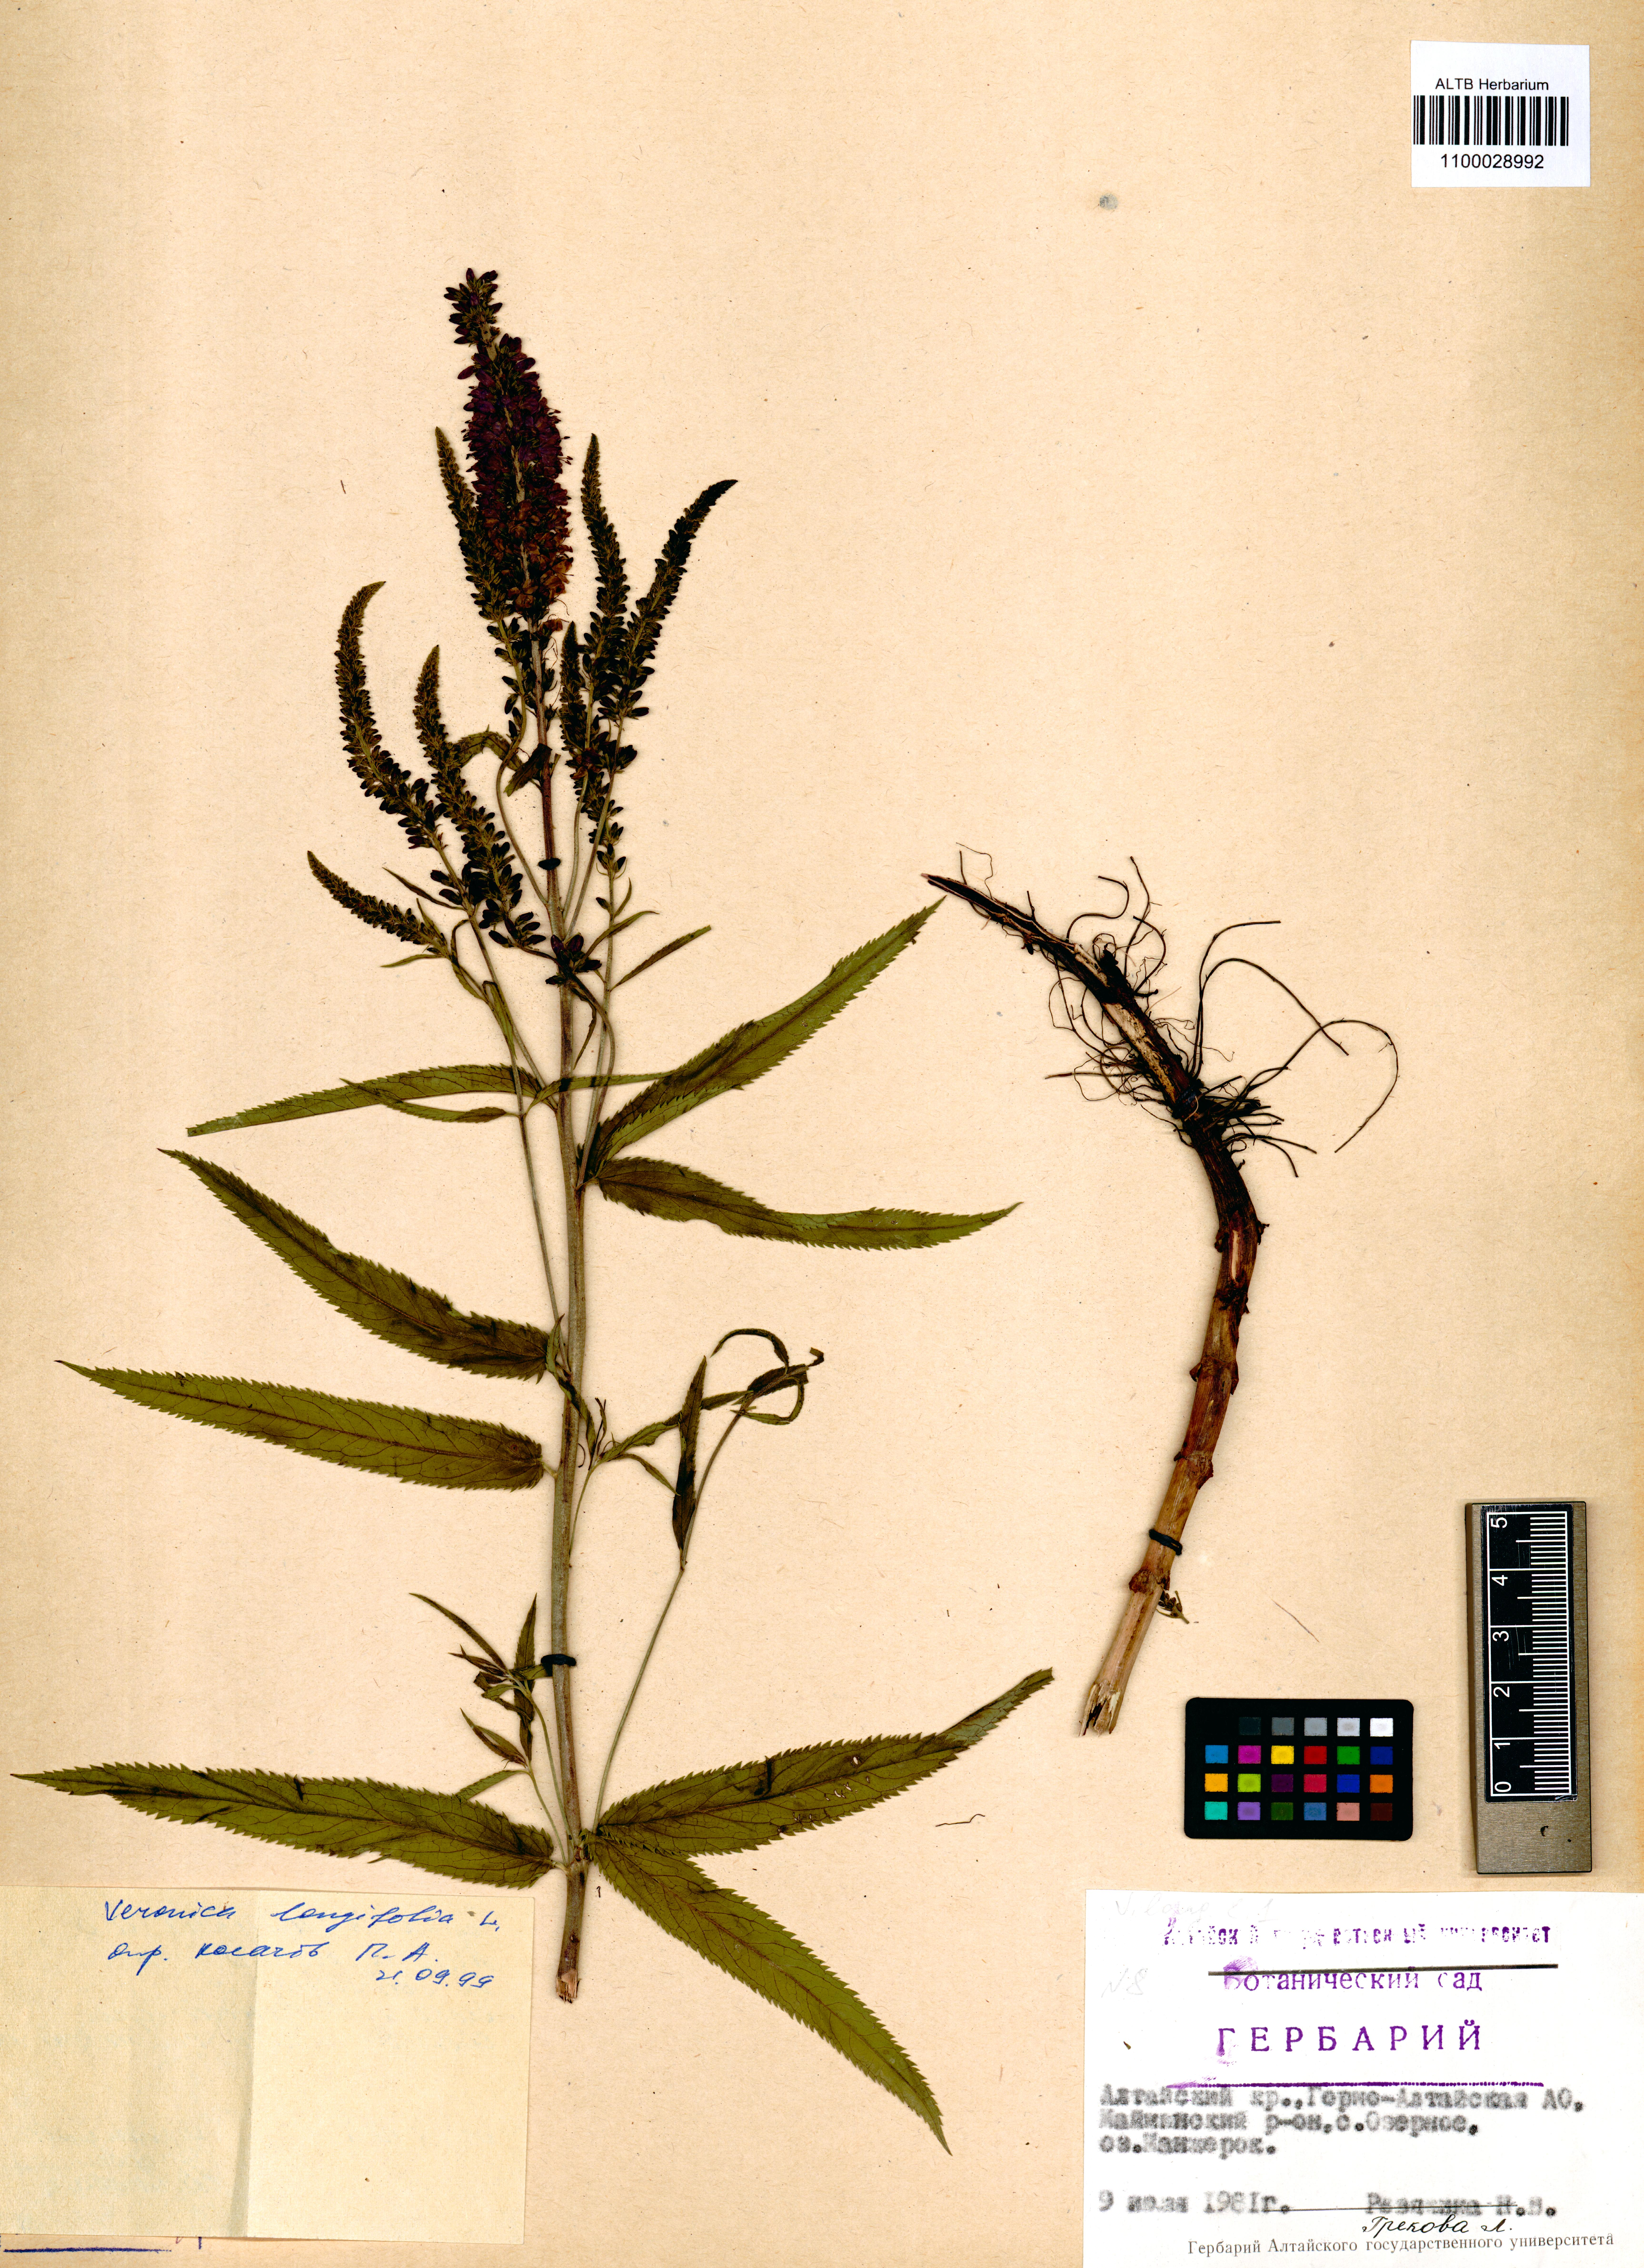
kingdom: Plantae
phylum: Tracheophyta
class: Magnoliopsida
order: Lamiales
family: Plantaginaceae
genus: Veronica
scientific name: Veronica longifolia
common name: Garden speedwell
